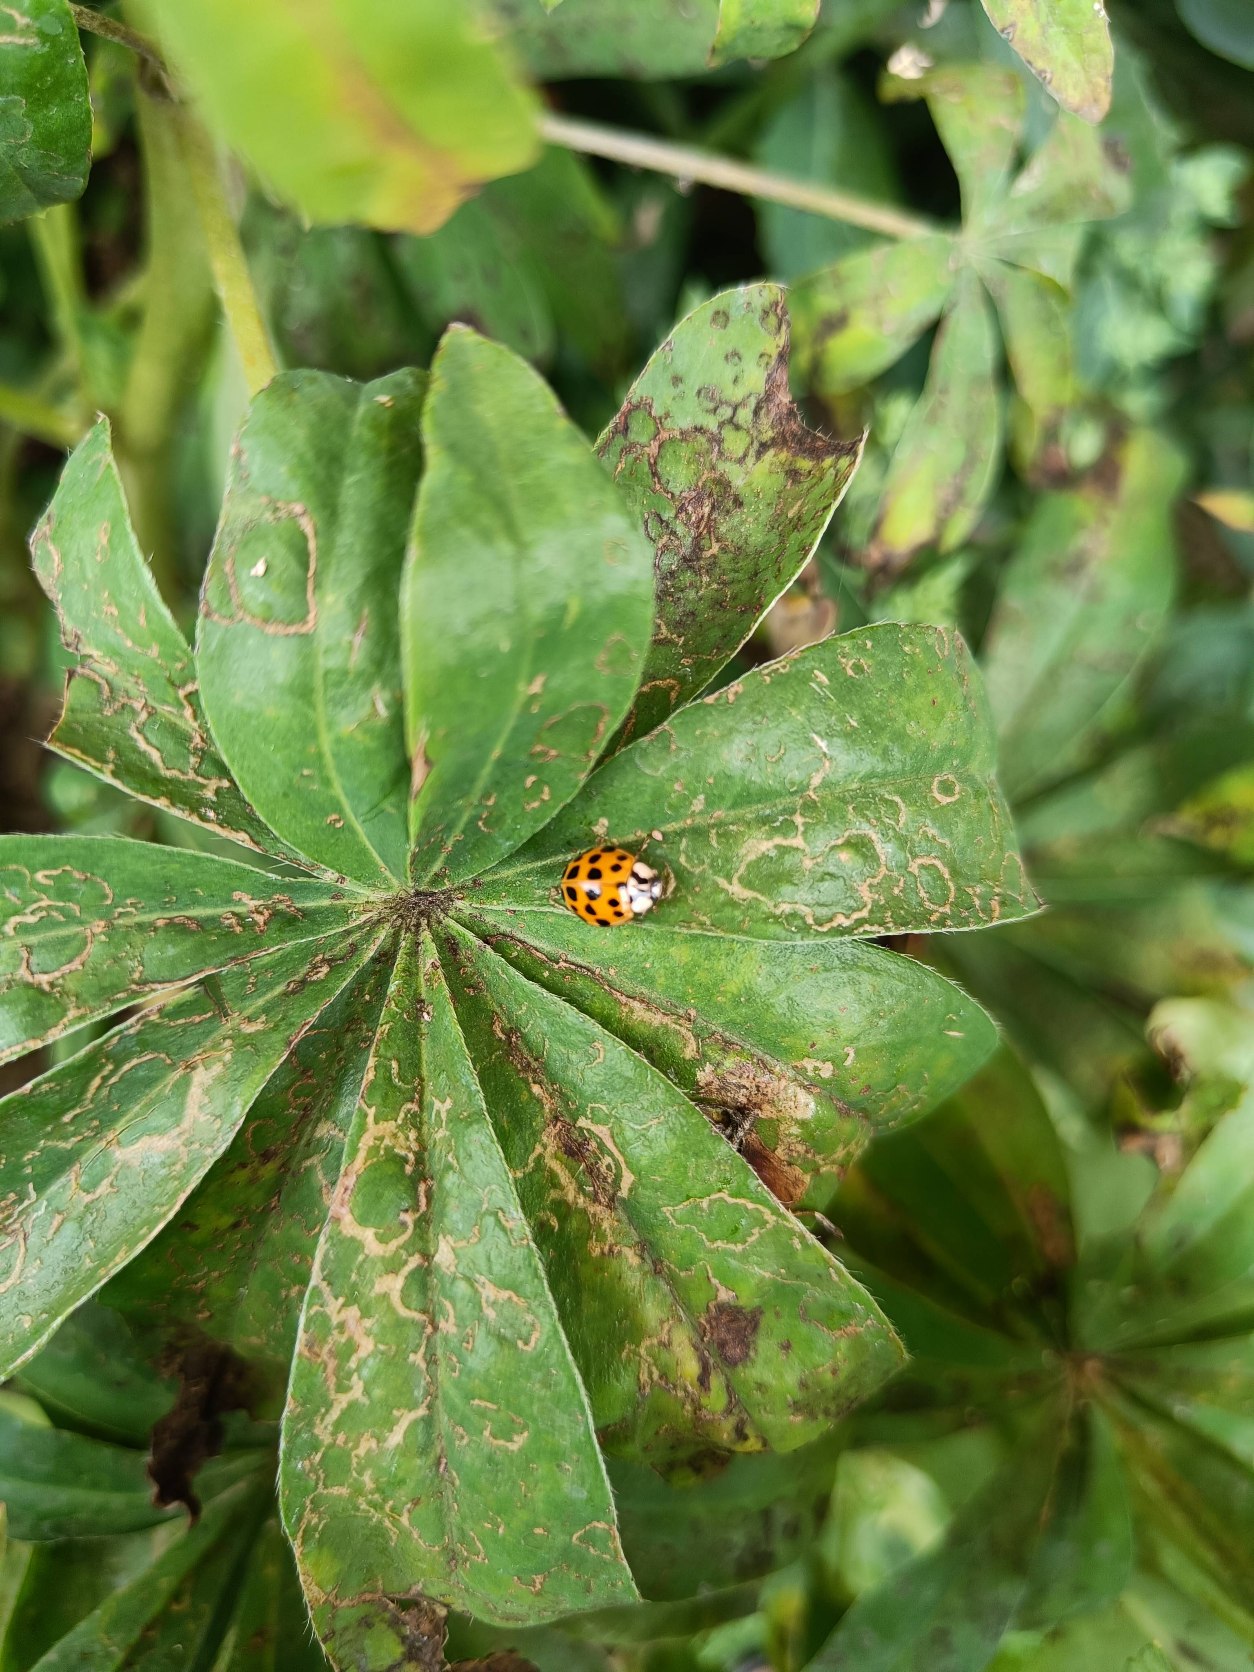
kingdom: Animalia
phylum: Arthropoda
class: Insecta
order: Coleoptera
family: Coccinellidae
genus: Harmonia
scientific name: Harmonia axyridis
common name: Harlekinmariehøne
